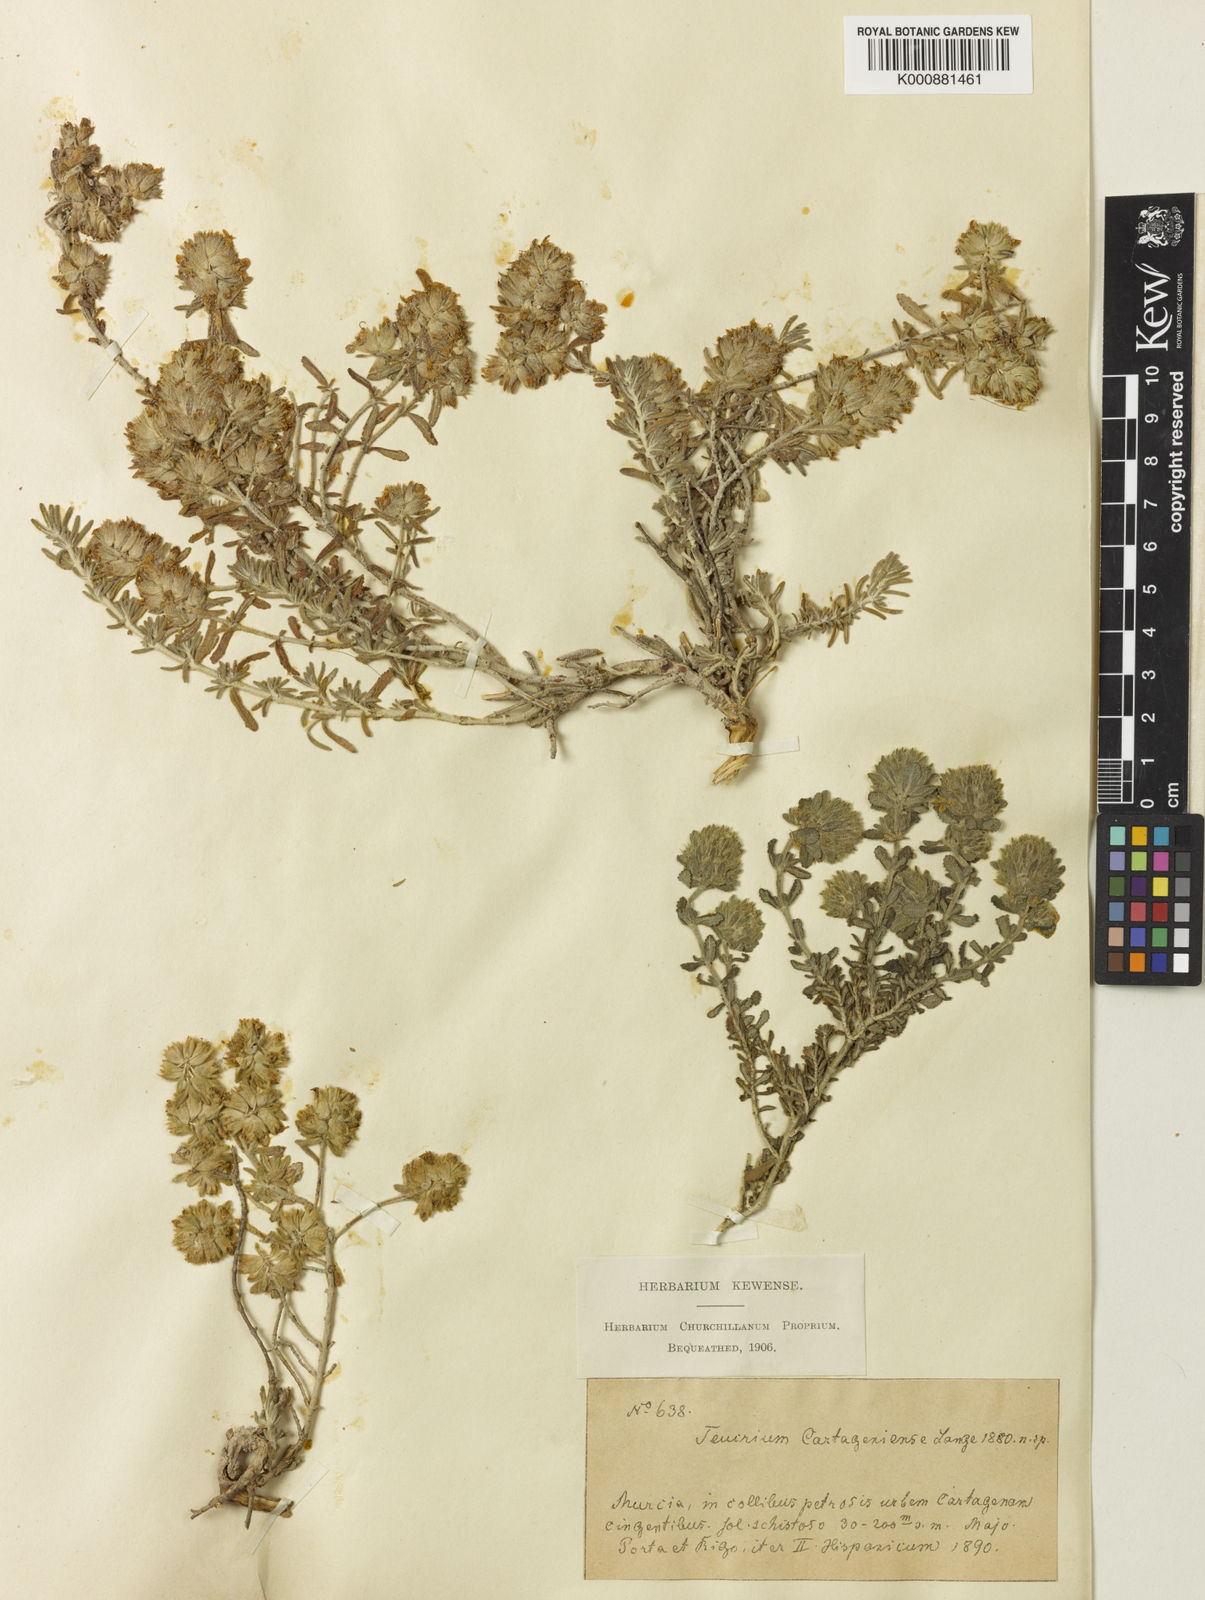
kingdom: Plantae
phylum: Tracheophyta
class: Magnoliopsida
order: Lamiales
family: Lamiaceae
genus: Teucrium
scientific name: Teucrium carthaginense
